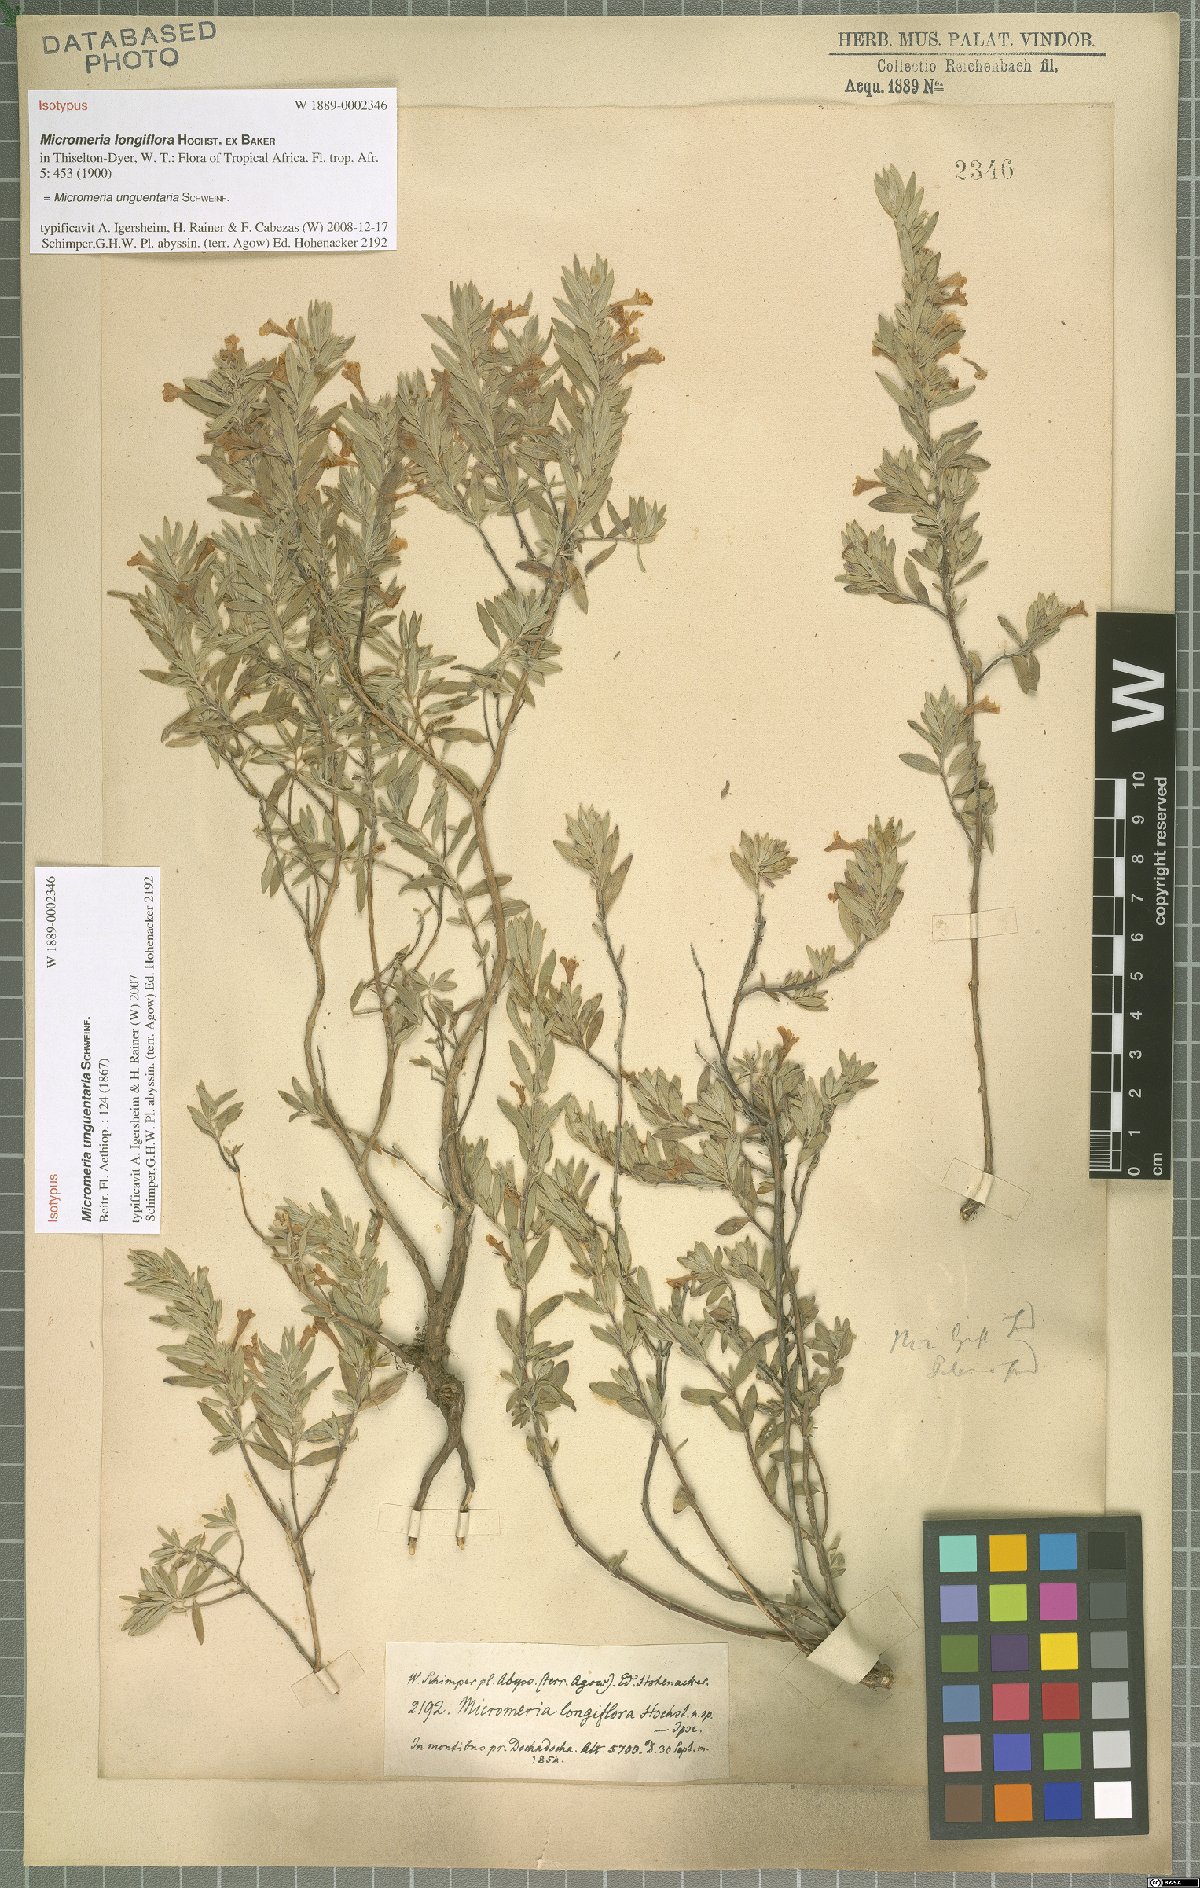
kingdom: Plantae
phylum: Tracheophyta
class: Magnoliopsida
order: Lamiales
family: Lamiaceae
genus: Micromeria
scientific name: Micromeria unguentaria
